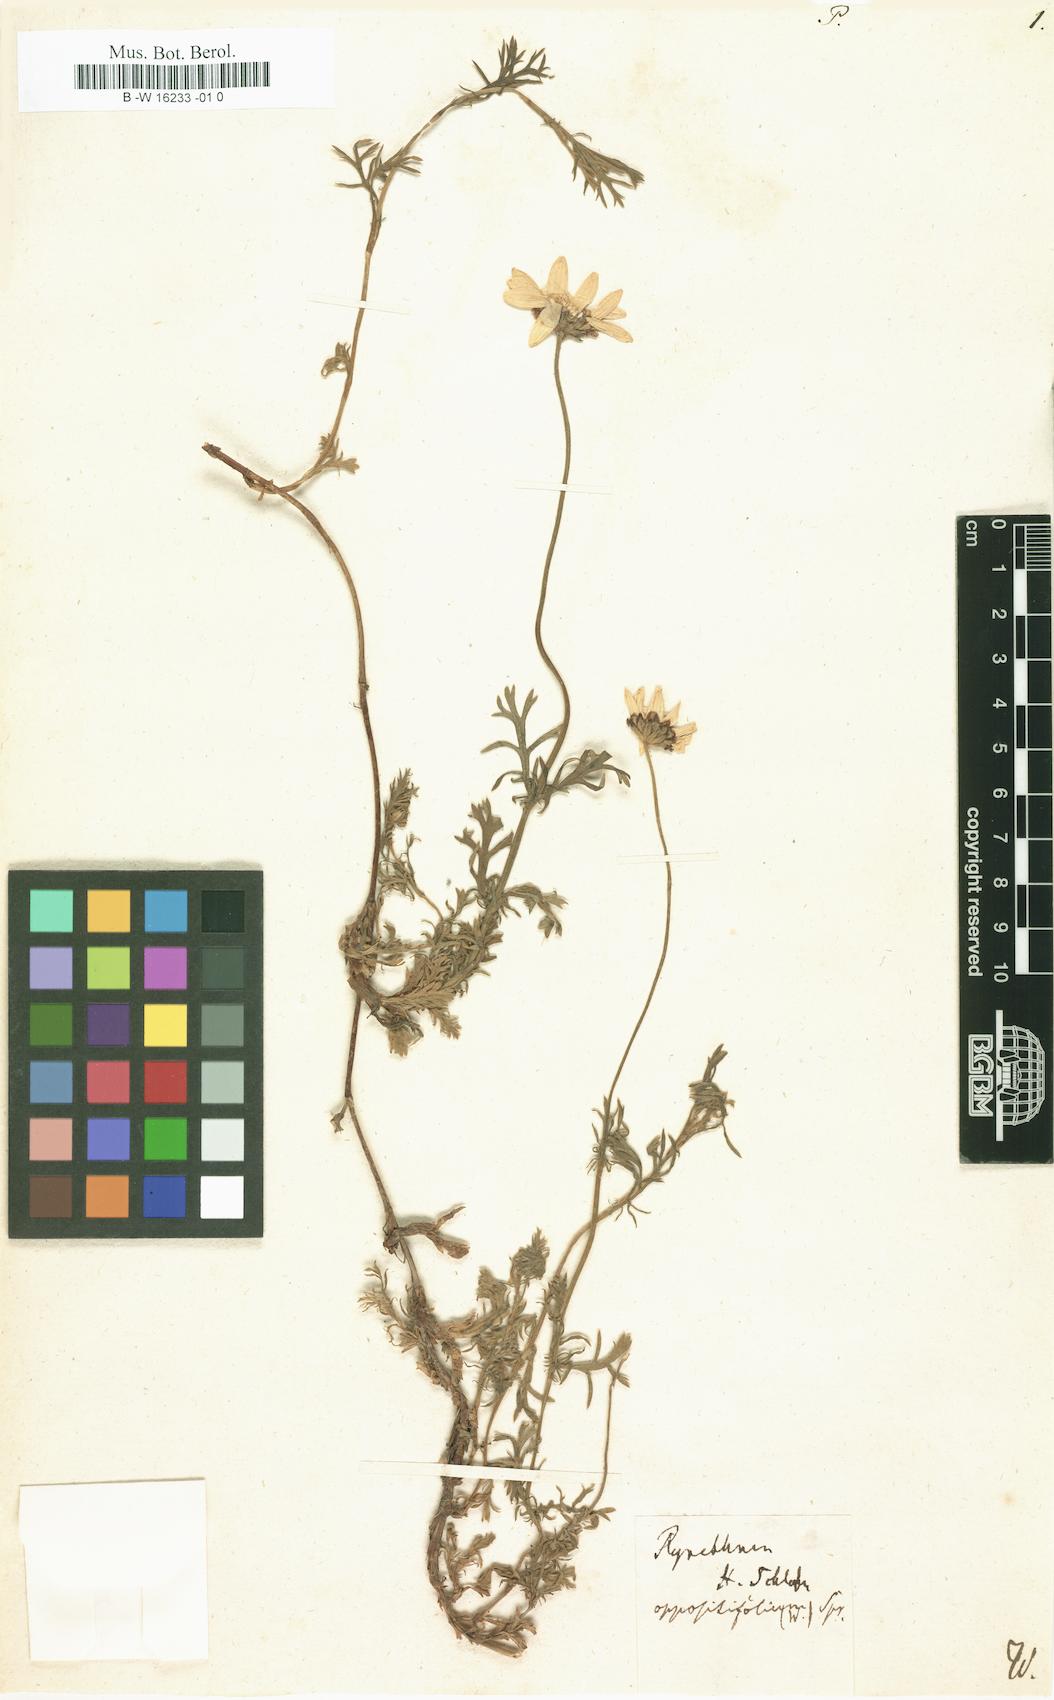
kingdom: Plantae
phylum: Tracheophyta
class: Magnoliopsida
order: Asterales
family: Asteraceae
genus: Phalacrocarpum
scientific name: Phalacrocarpum oppositifolium
